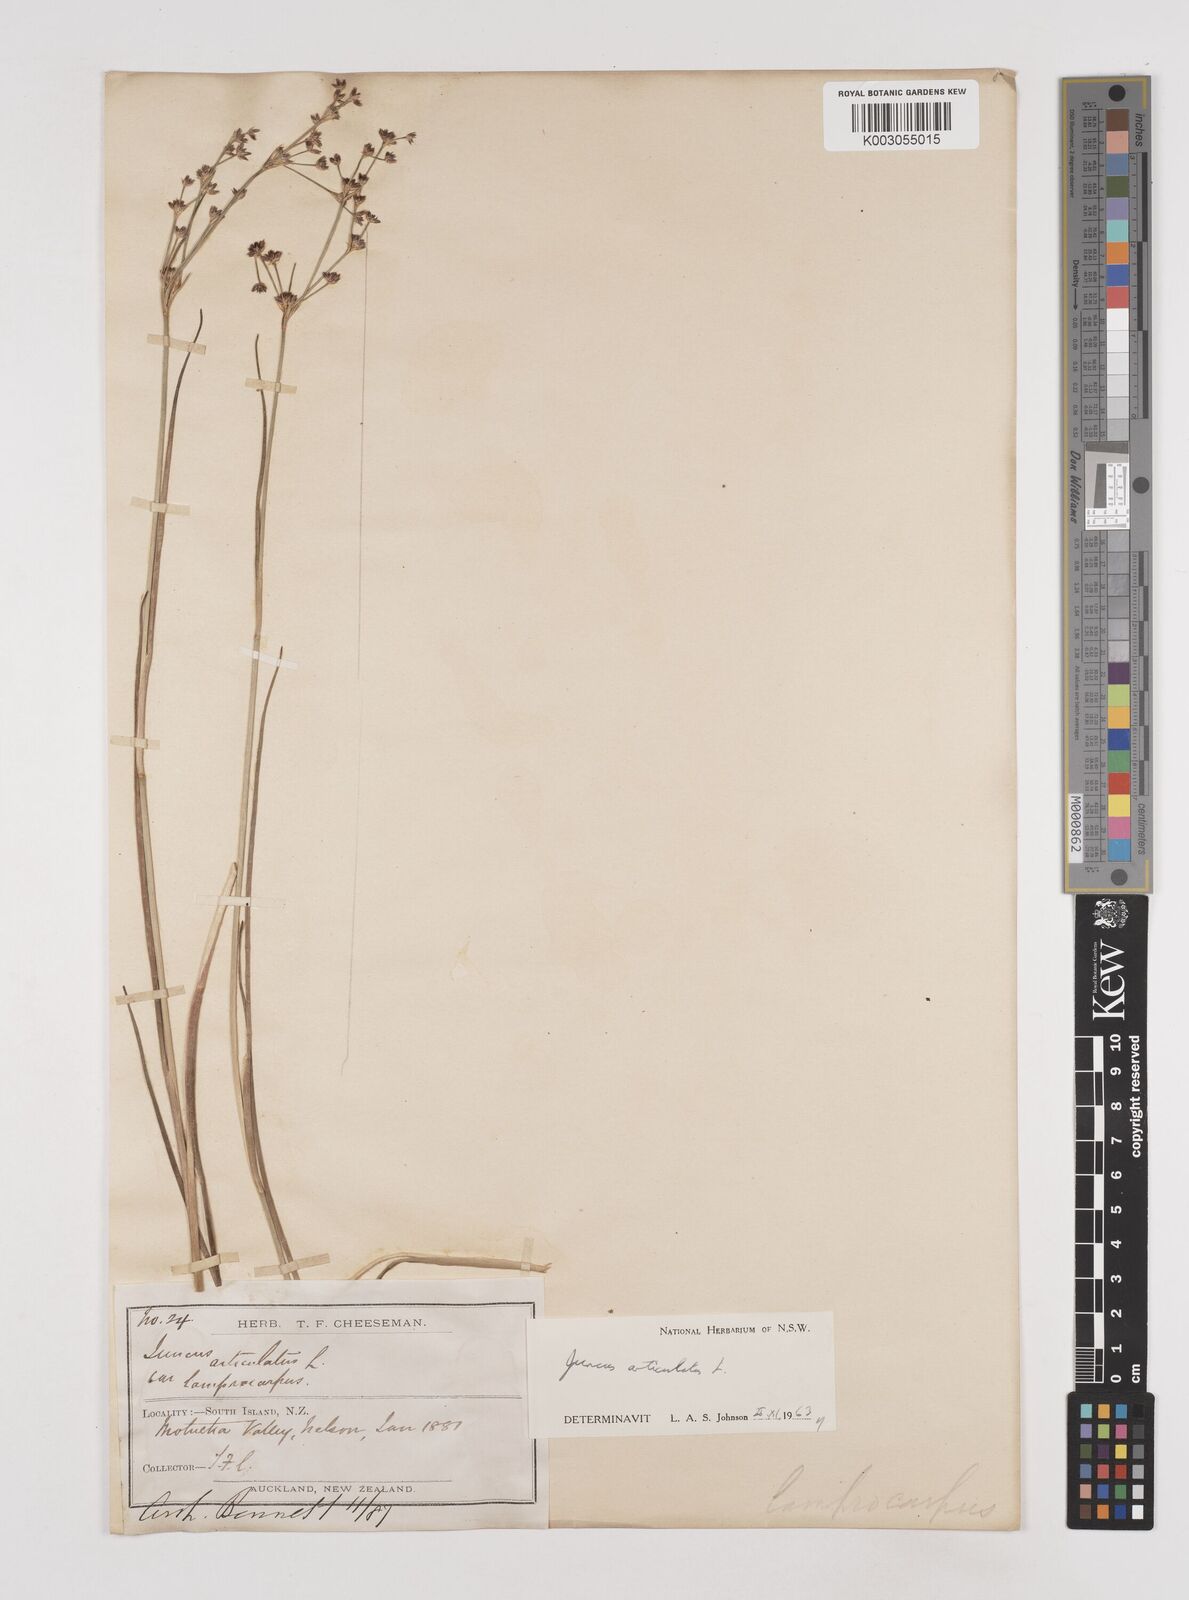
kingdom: Plantae
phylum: Tracheophyta
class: Liliopsida
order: Poales
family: Juncaceae
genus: Juncus
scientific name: Juncus articulatus
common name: Jointed rush
